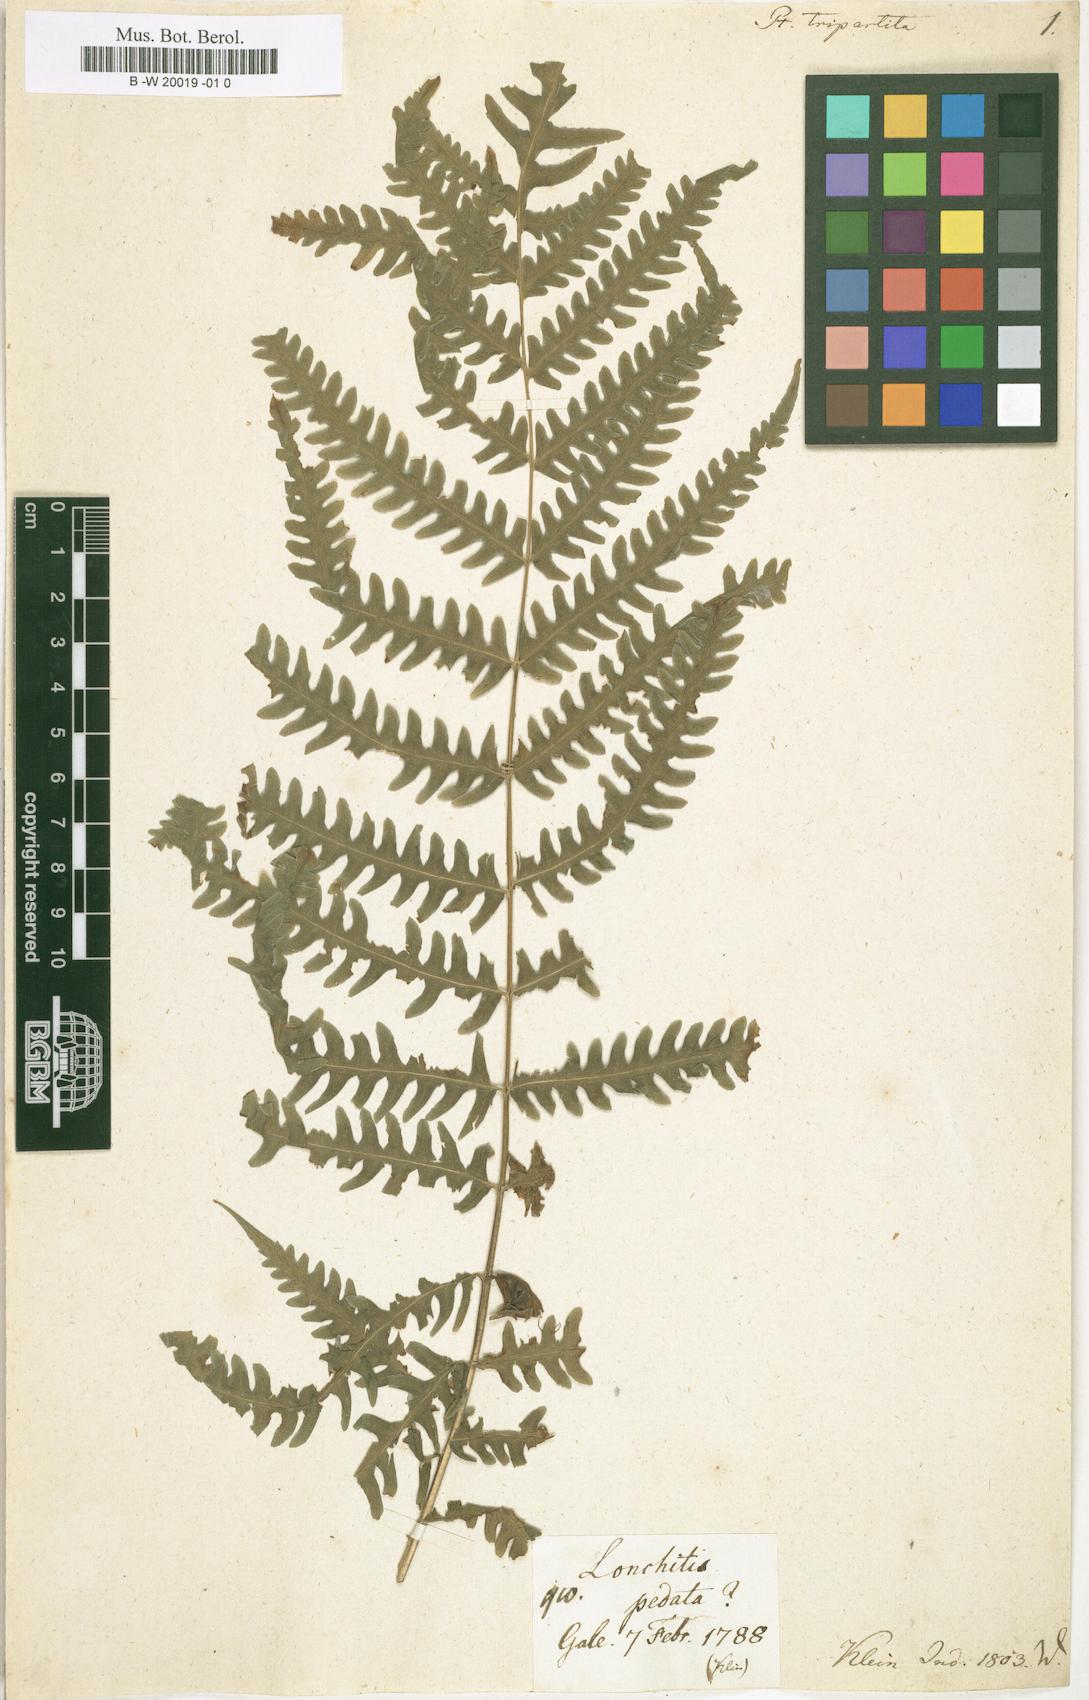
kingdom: Plantae
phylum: Tracheophyta
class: Polypodiopsida
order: Polypodiales
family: Pteridaceae
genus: Pteris
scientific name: Pteris tripartita
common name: Giant brake
